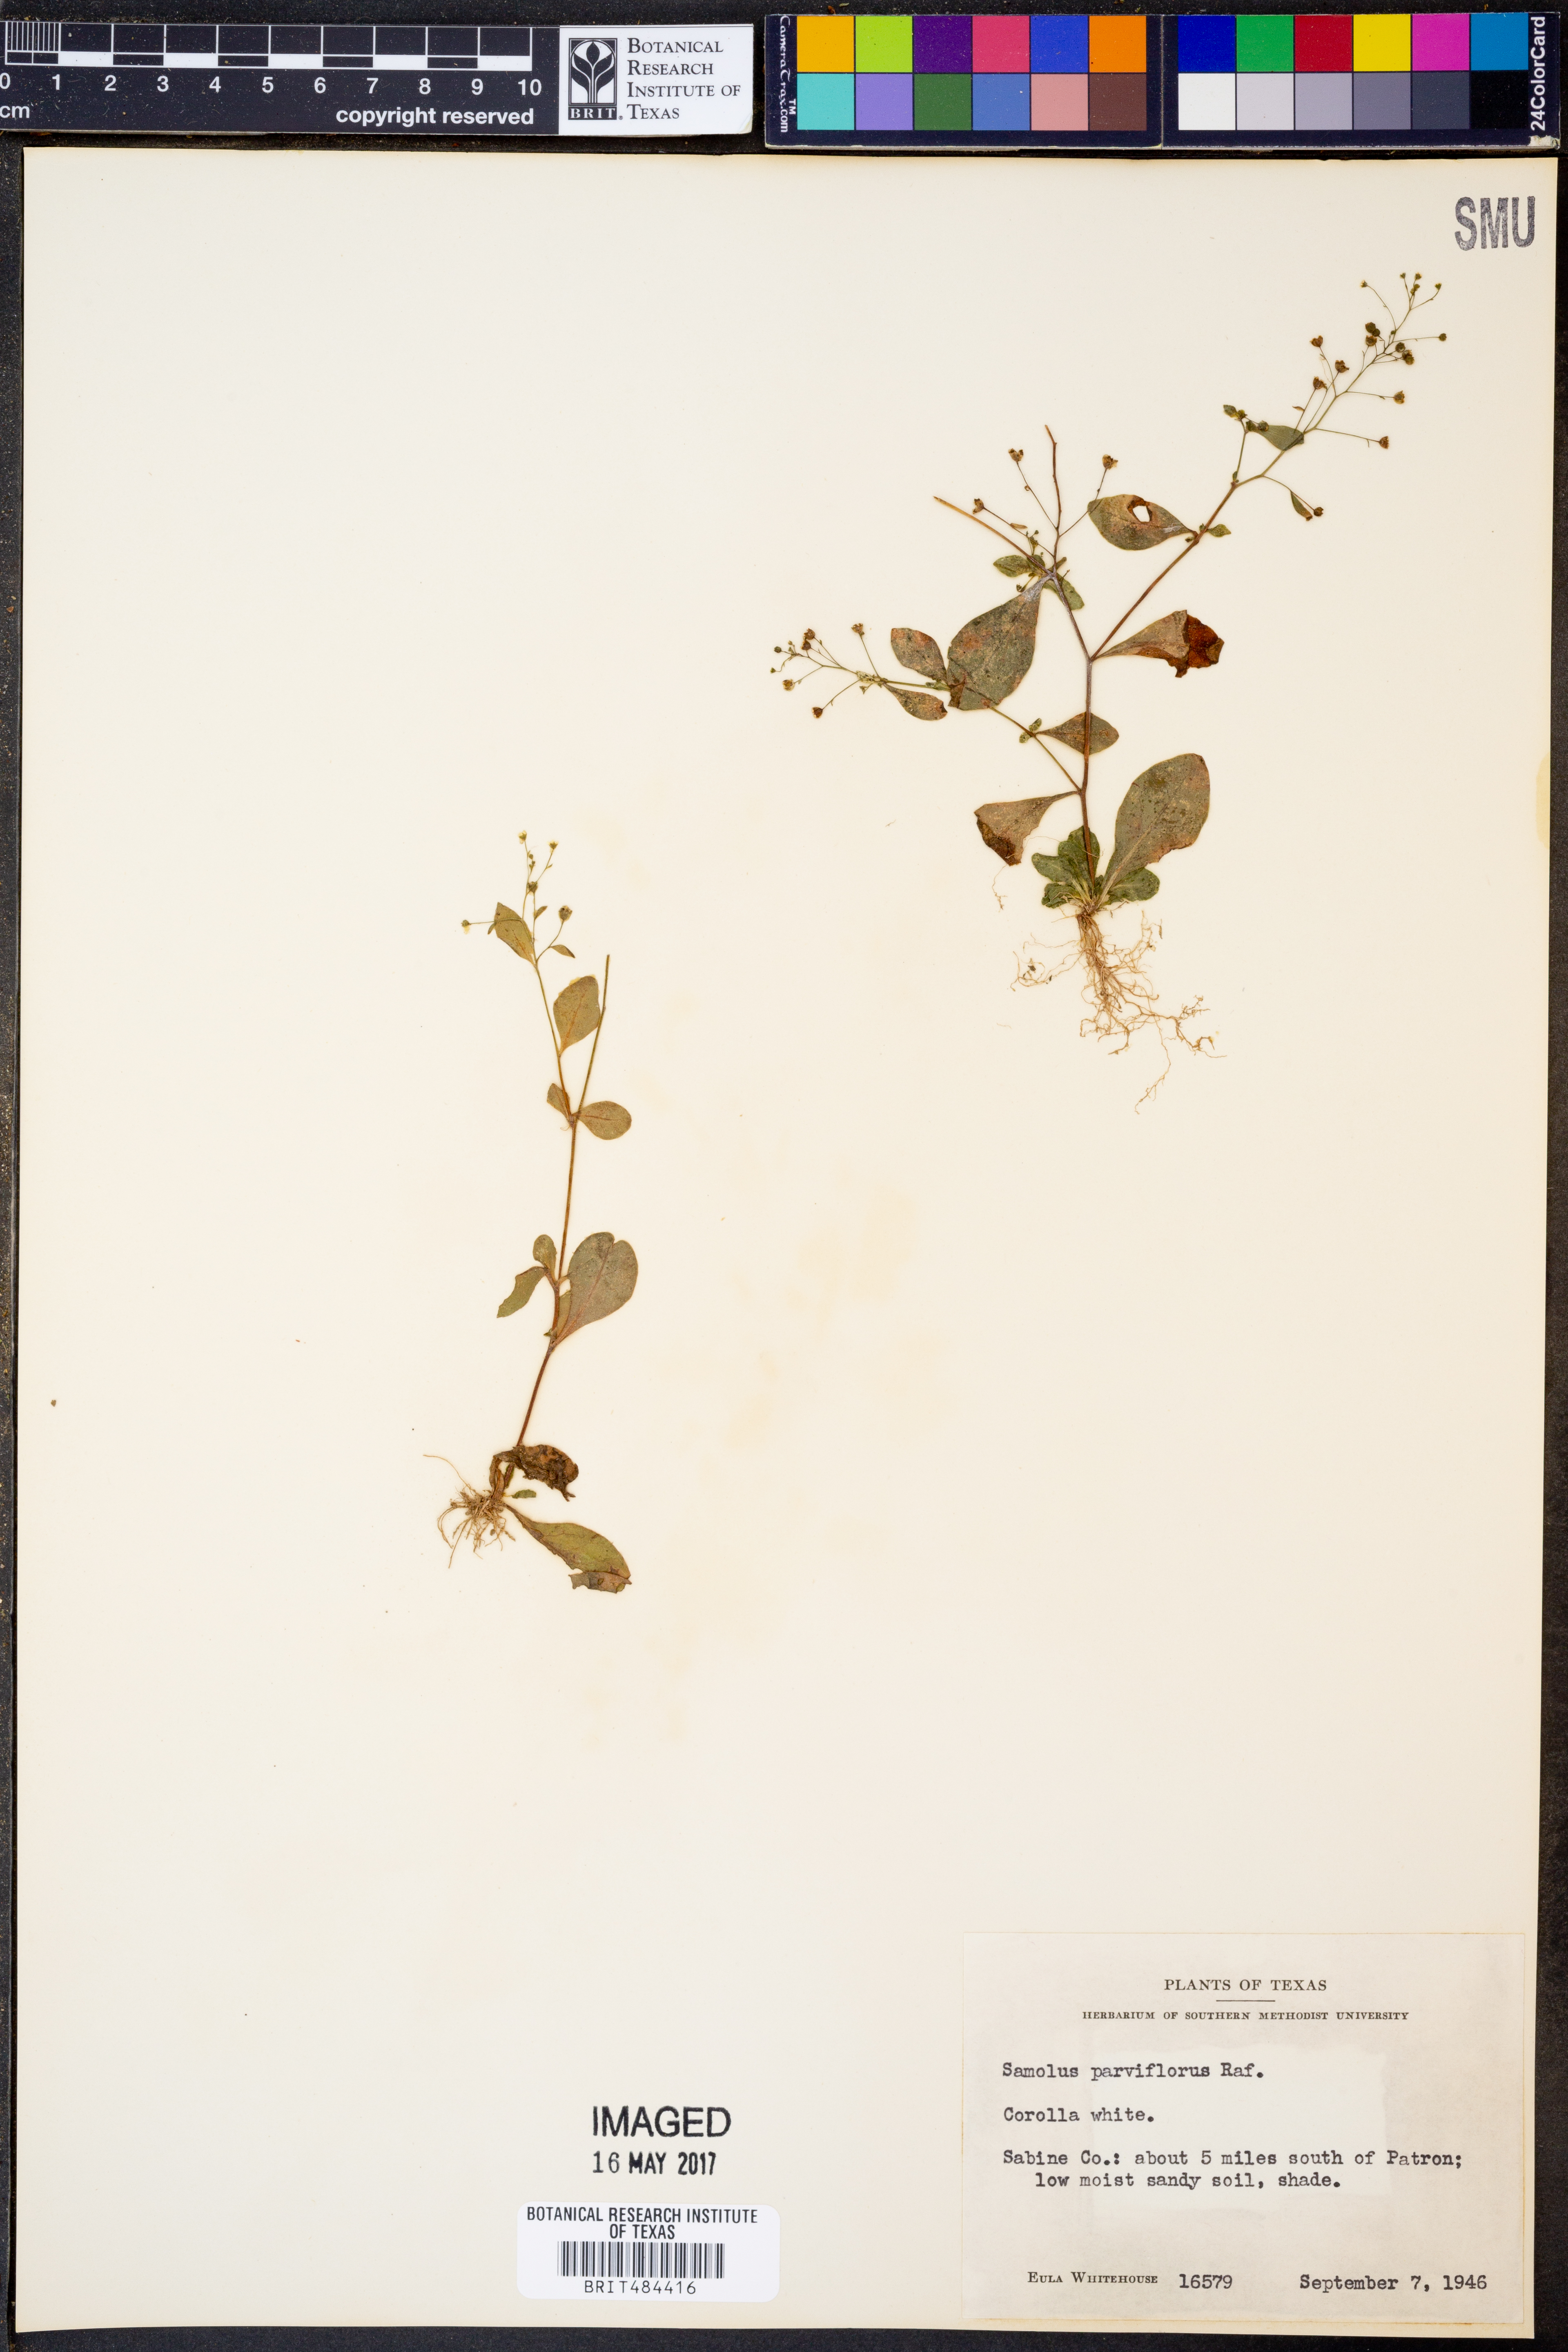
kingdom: Plantae
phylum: Tracheophyta
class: Magnoliopsida
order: Ericales
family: Primulaceae
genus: Samolus
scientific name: Samolus parviflorus
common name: False water pimpernel
